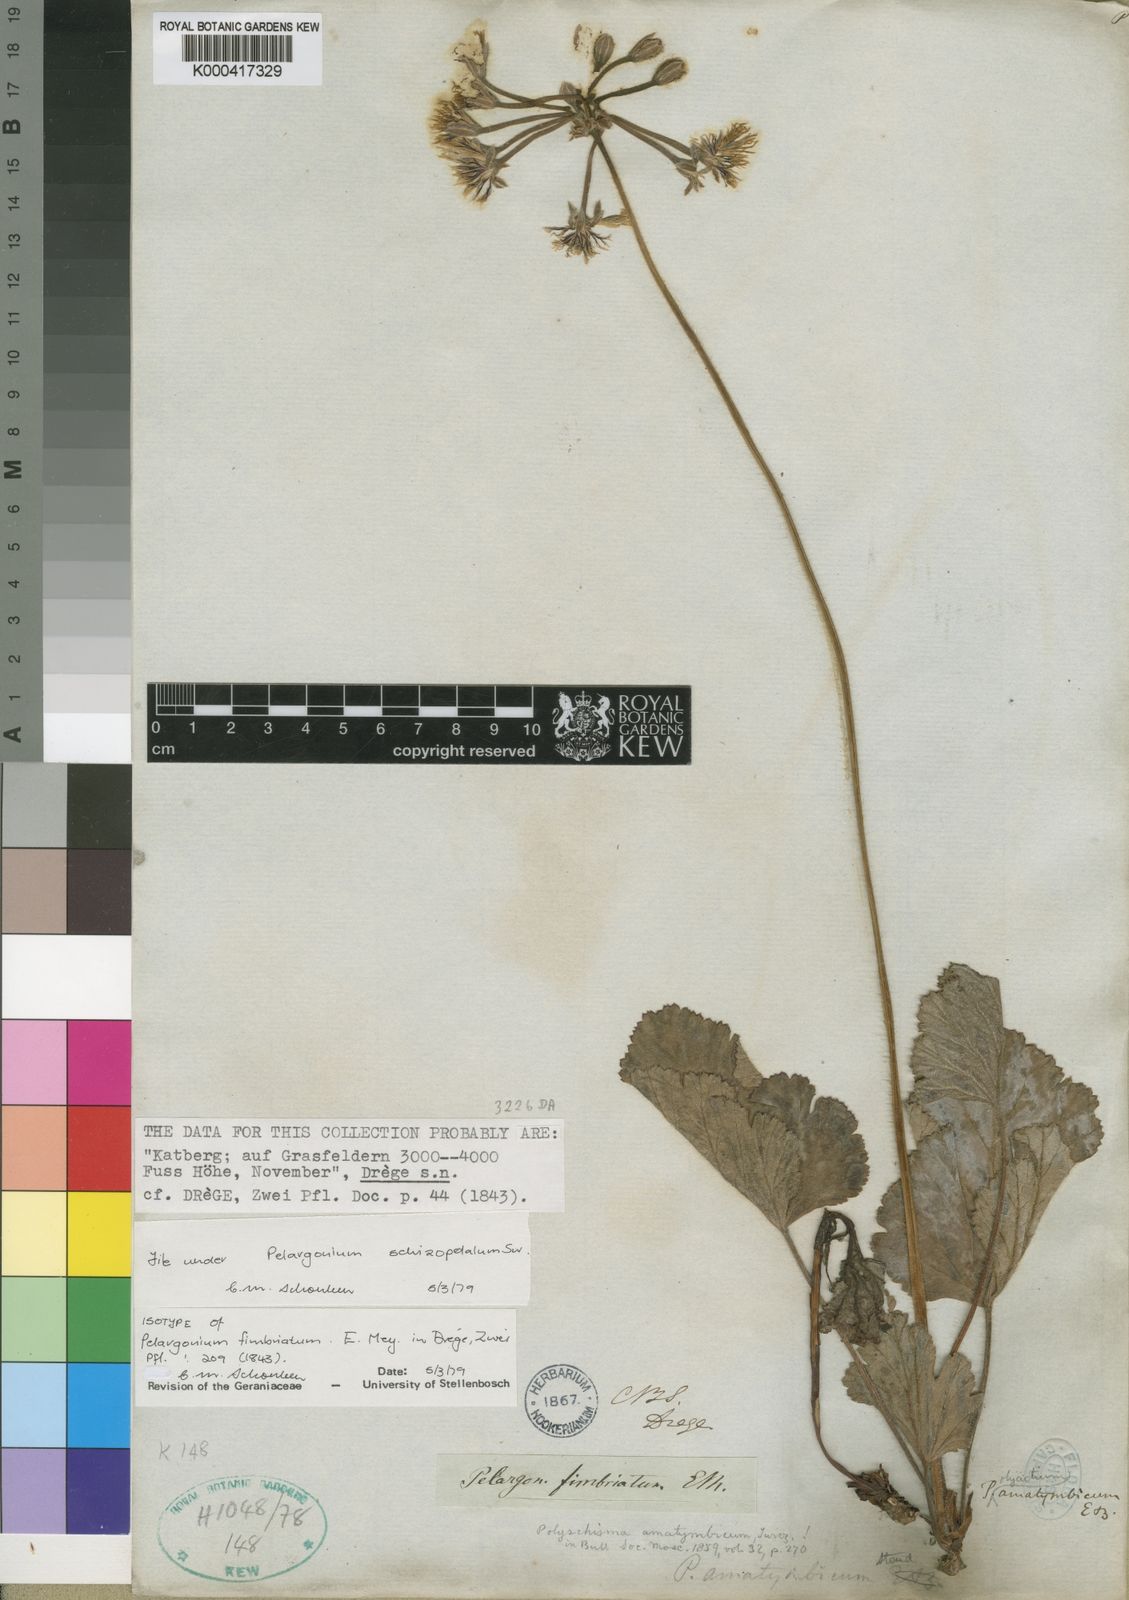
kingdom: Plantae
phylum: Tracheophyta
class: Magnoliopsida
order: Geraniales
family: Geraniaceae
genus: Pelargonium
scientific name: Pelargonium schizopetalum
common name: Divided-petal pelargonium
